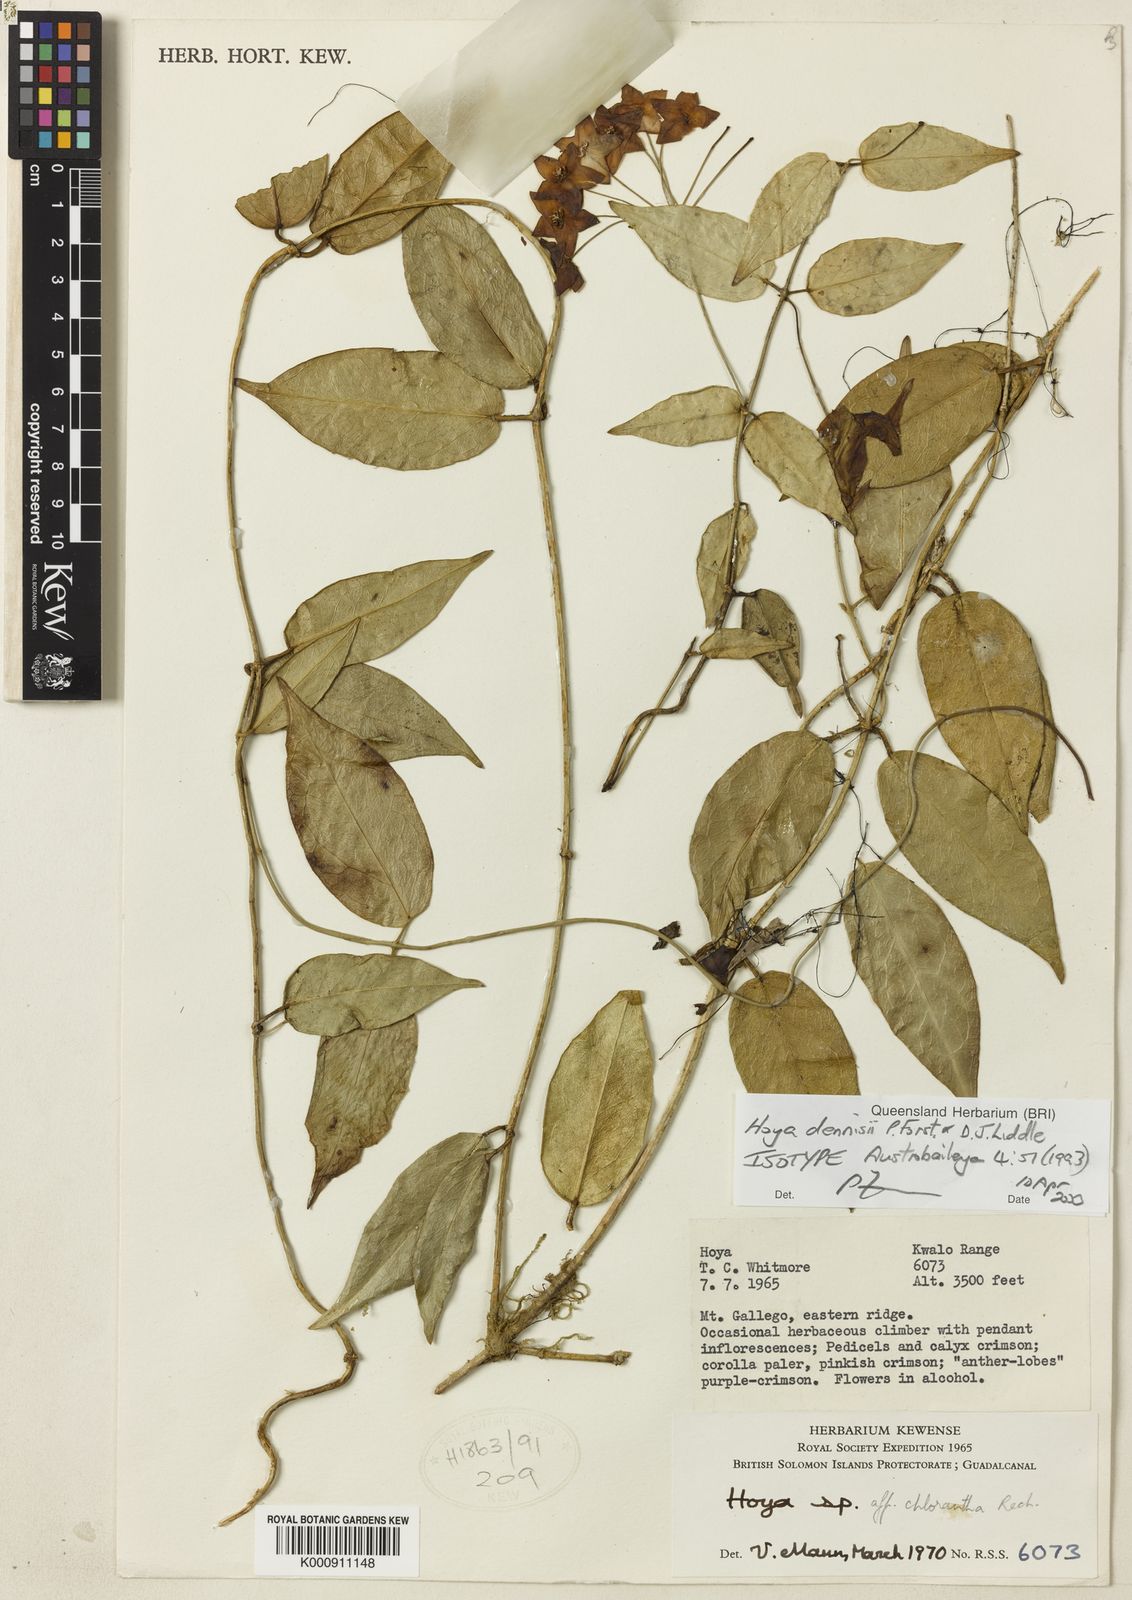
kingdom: Plantae
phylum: Tracheophyta
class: Magnoliopsida
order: Gentianales
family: Apocynaceae
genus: Hoya
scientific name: Hoya dennisii
